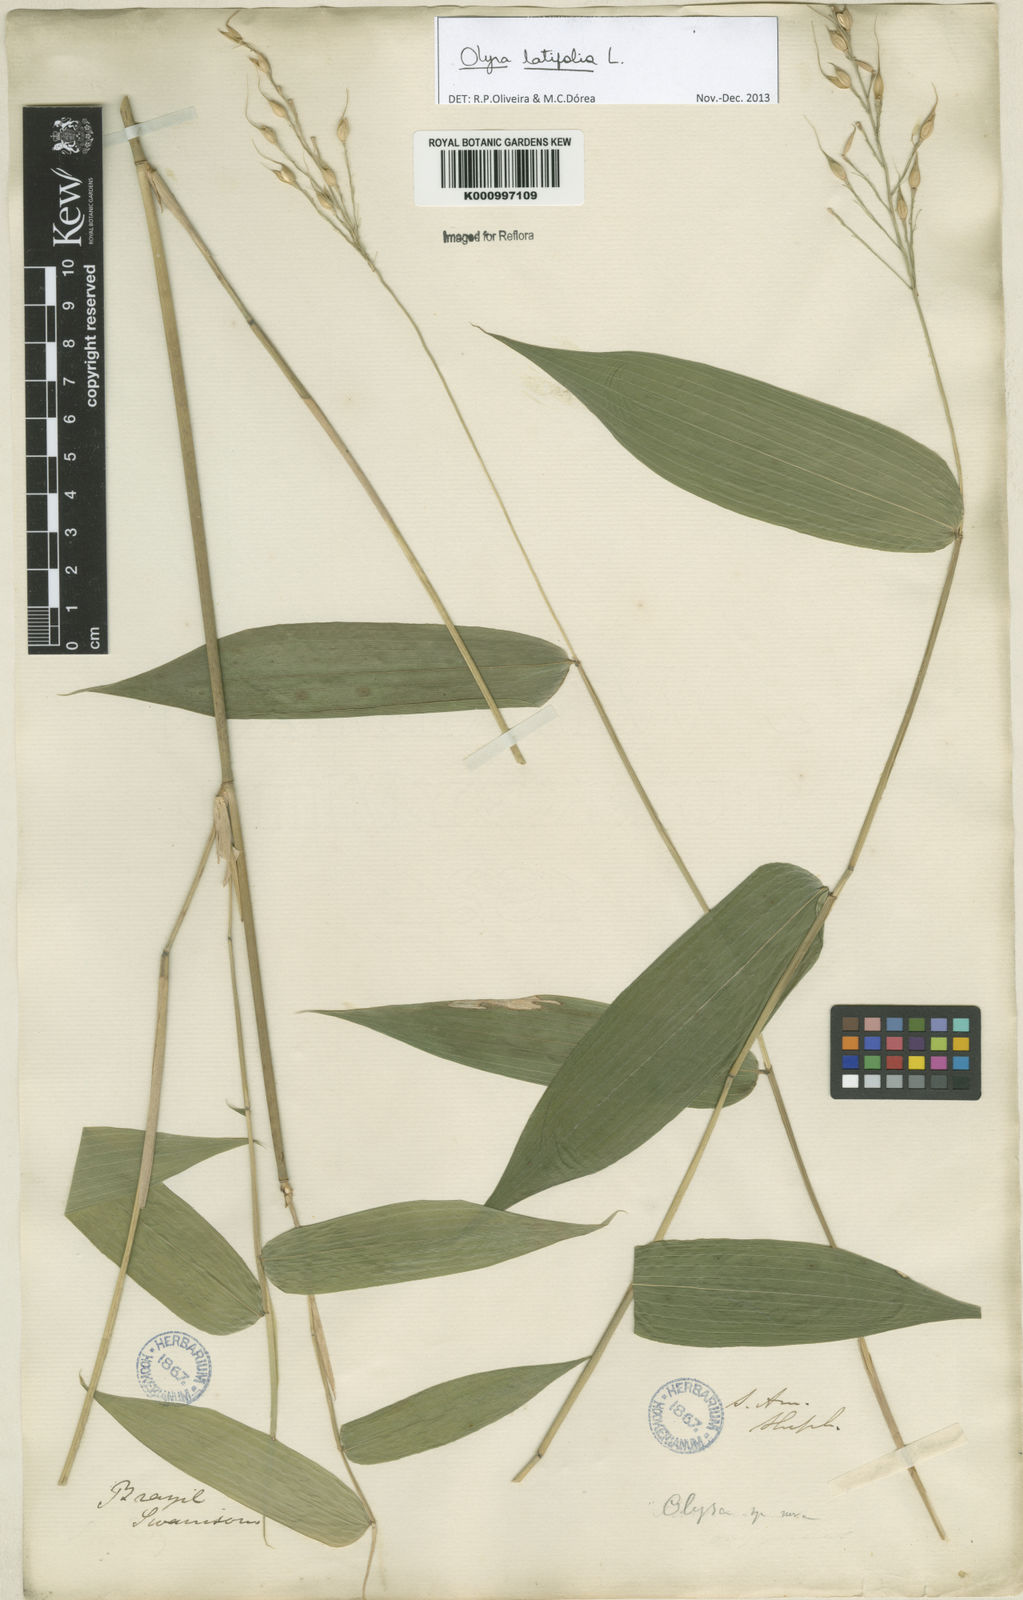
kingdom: Plantae
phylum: Tracheophyta
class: Liliopsida
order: Poales
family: Poaceae
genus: Olyra
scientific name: Olyra latifolia
